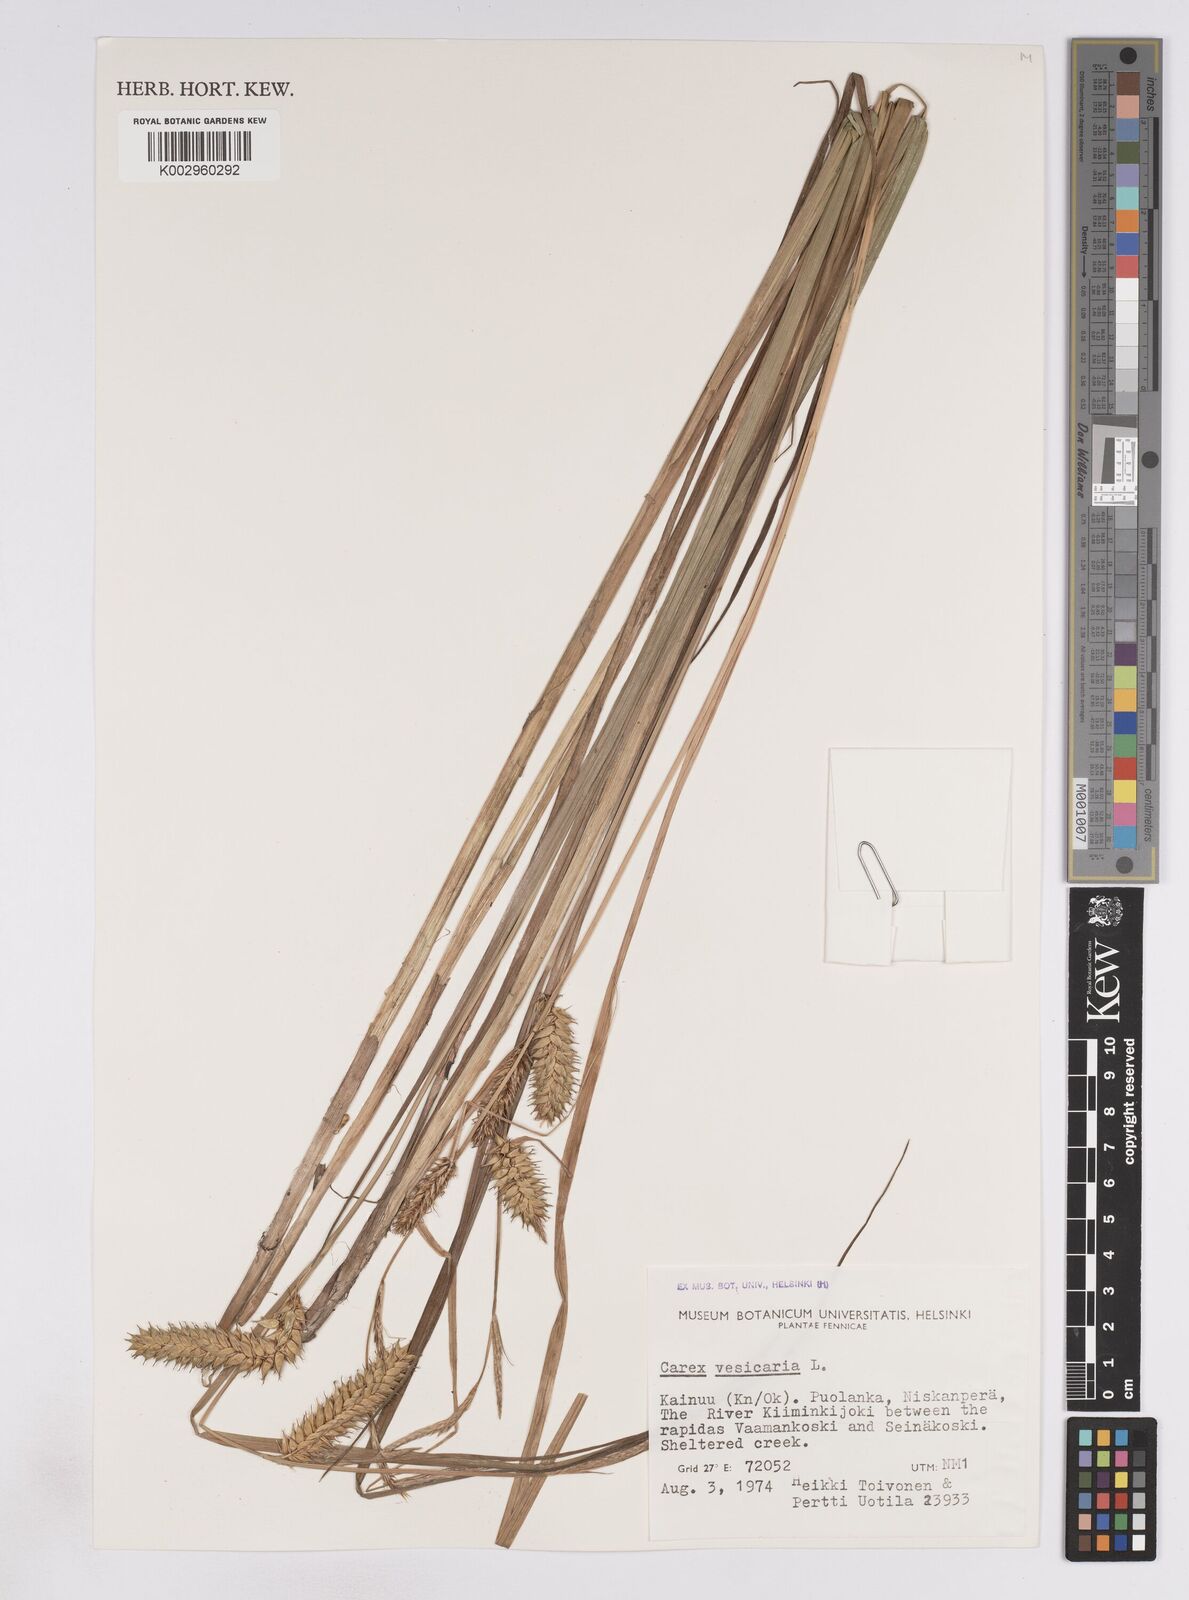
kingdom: Plantae
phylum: Tracheophyta
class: Liliopsida
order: Poales
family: Cyperaceae
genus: Carex
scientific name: Carex vesicaria
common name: Bladder-sedge
